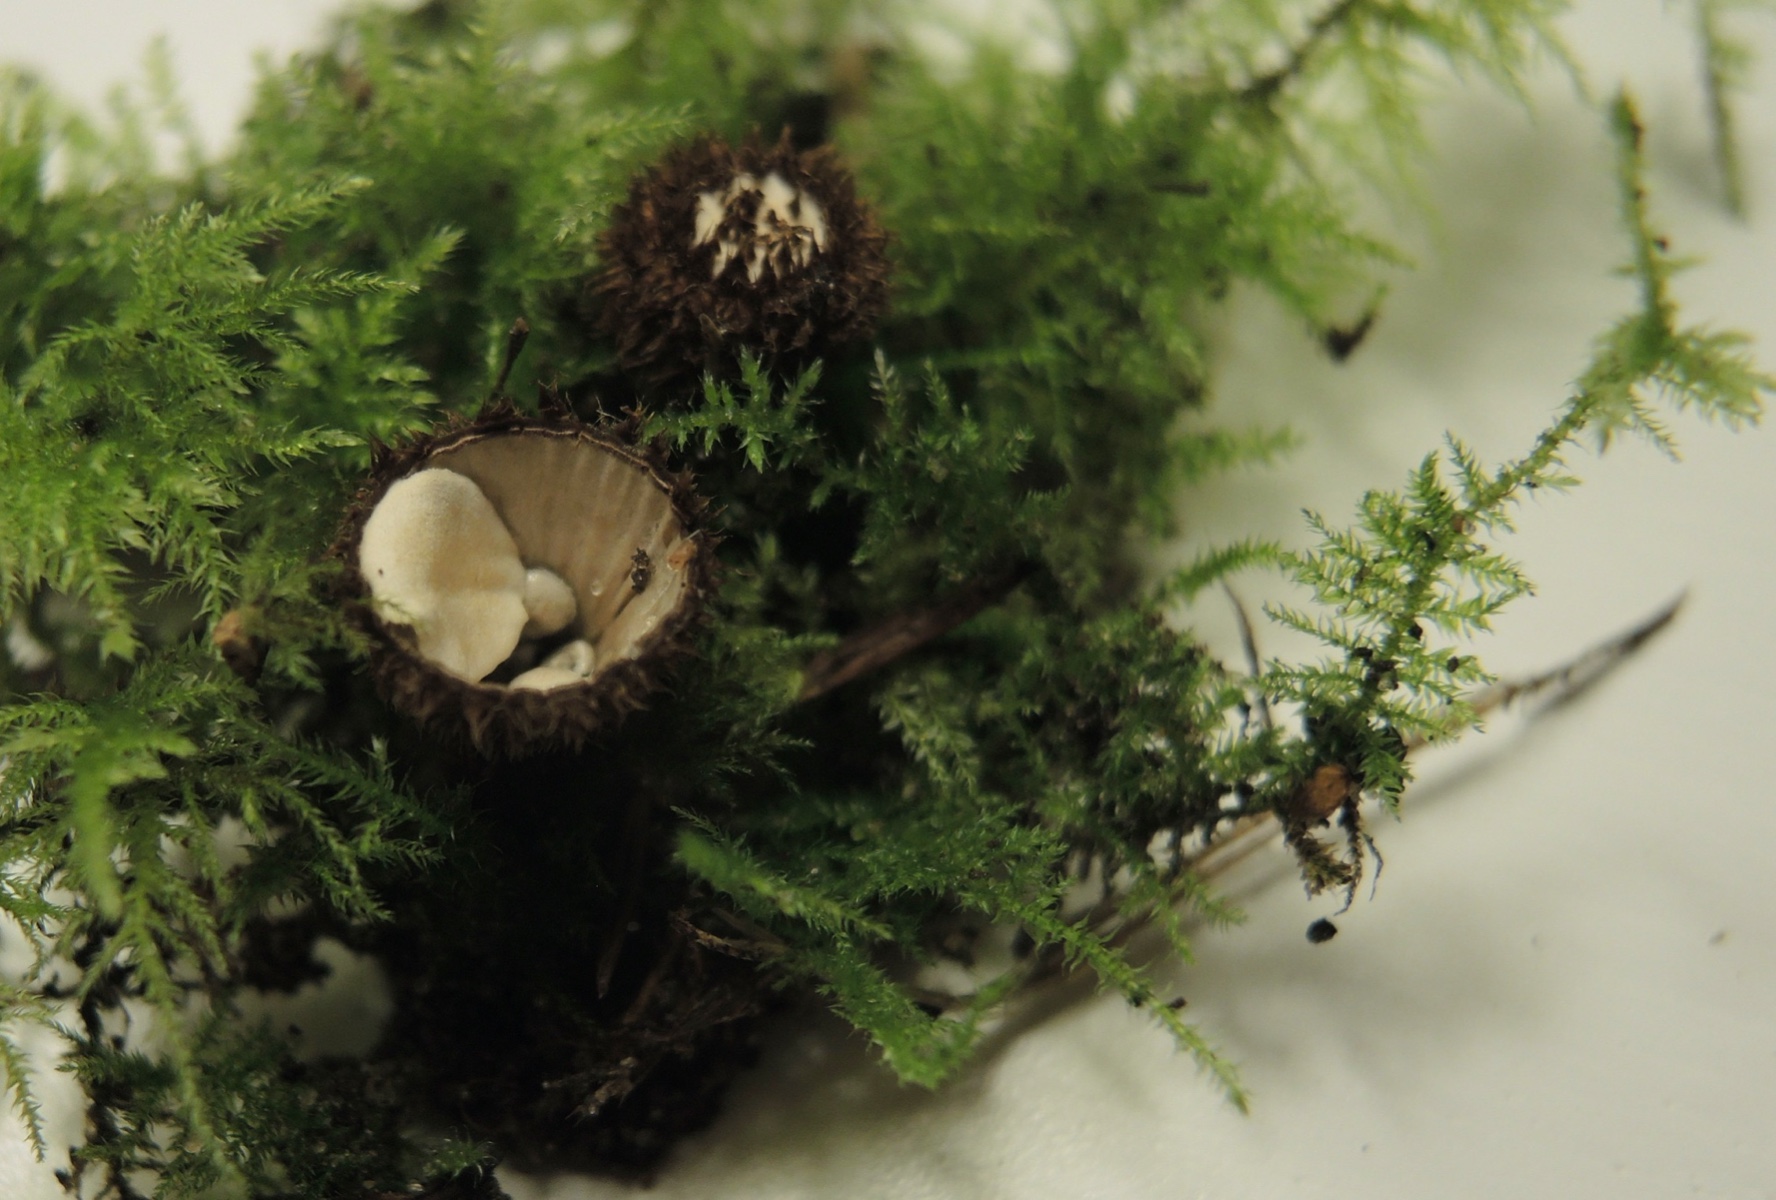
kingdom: Fungi
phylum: Basidiomycota
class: Agaricomycetes
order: Agaricales
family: Agaricaceae
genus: Cyathus
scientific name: Cyathus striatus
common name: stribet redesvamp
